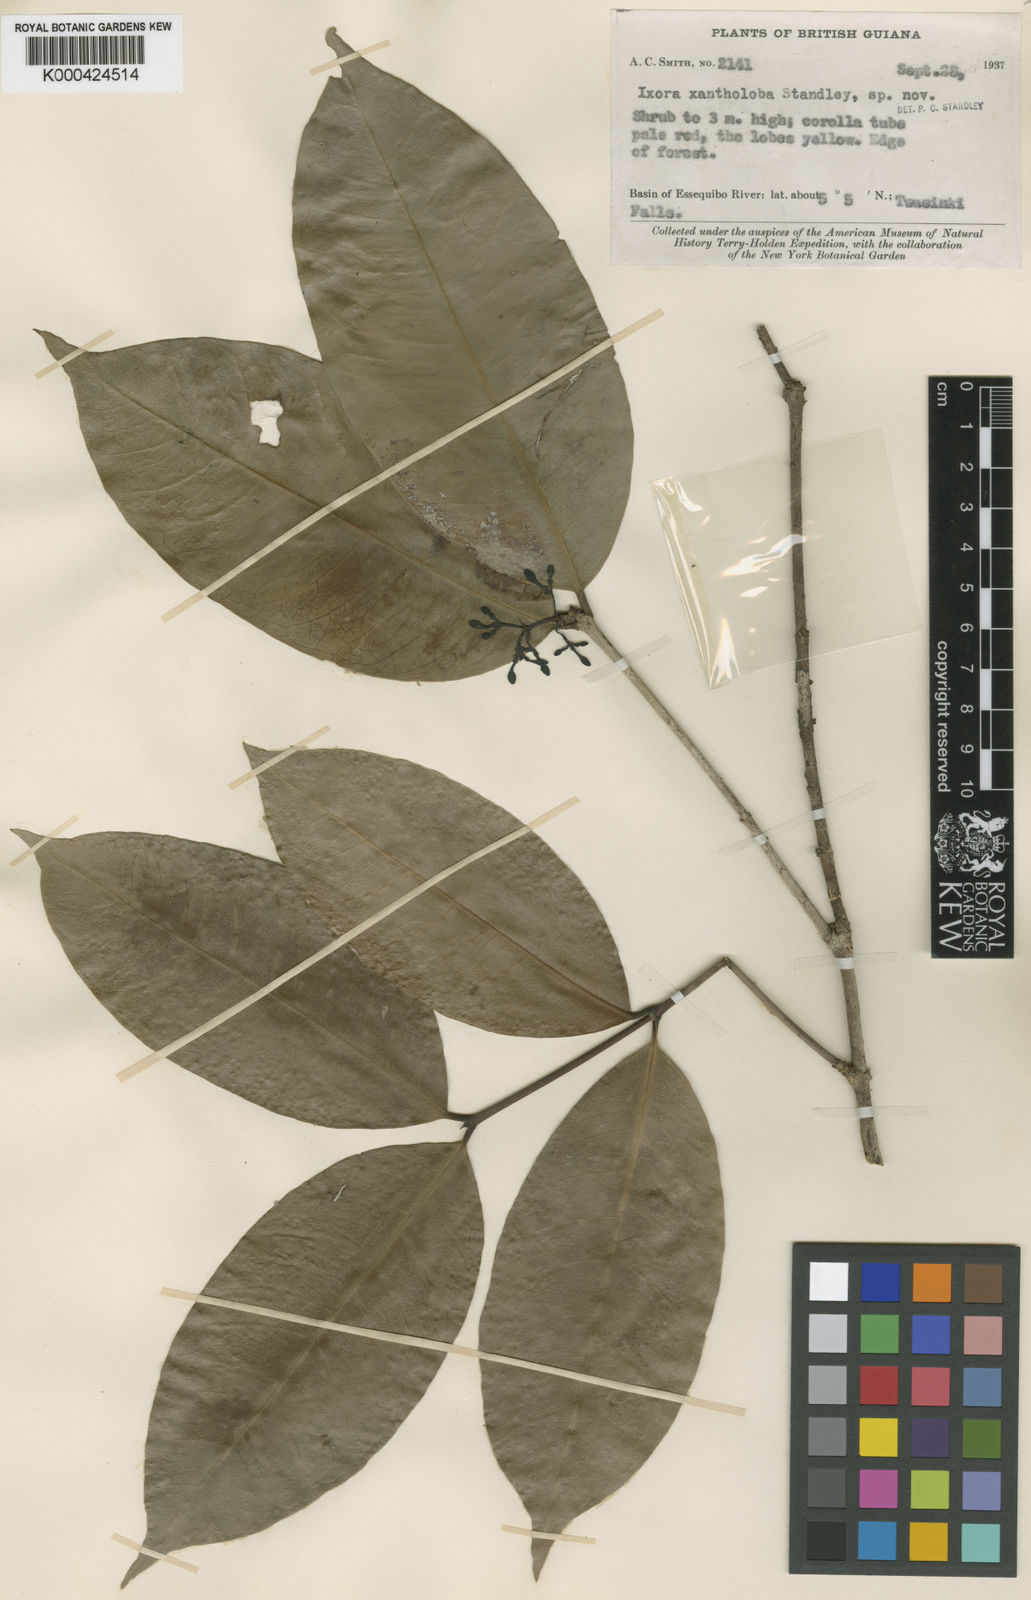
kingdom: Plantae
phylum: Tracheophyta
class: Magnoliopsida
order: Gentianales
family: Rubiaceae
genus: Ixora
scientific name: Ixora graciliflora
